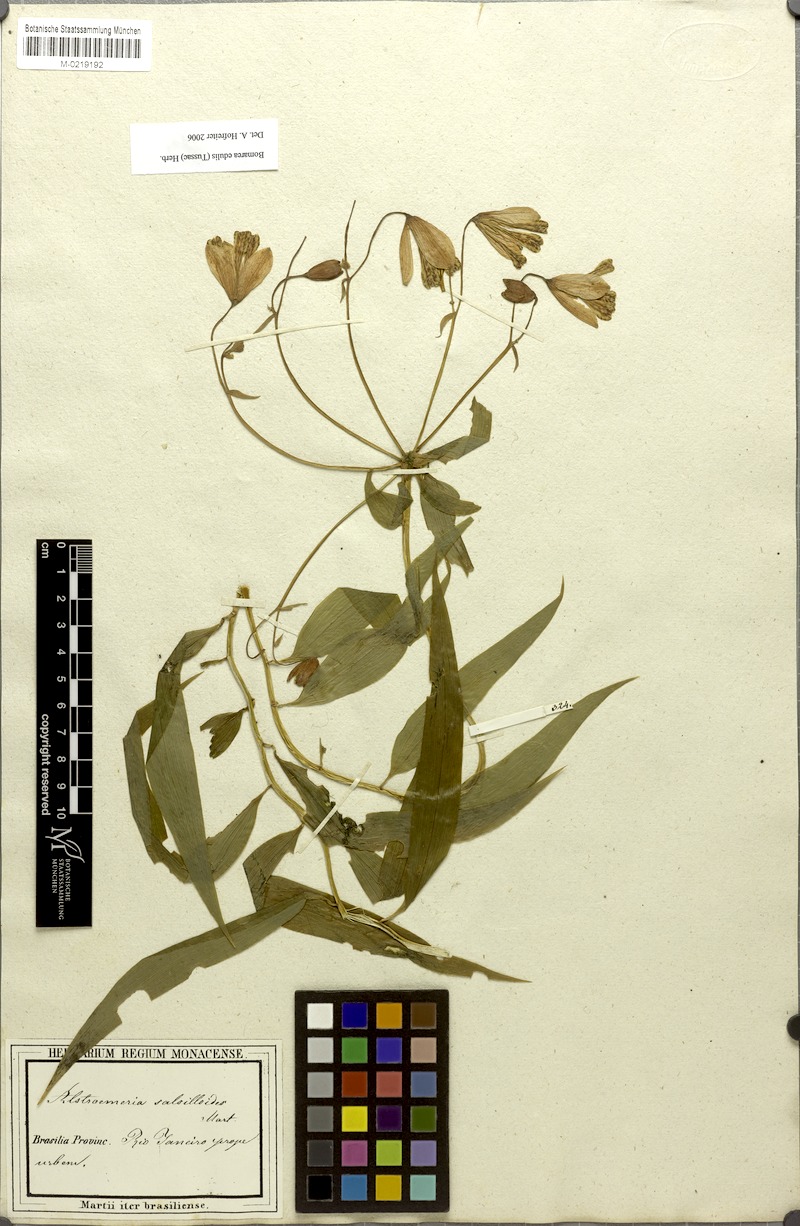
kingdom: Plantae
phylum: Tracheophyta
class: Liliopsida
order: Liliales
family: Alstroemeriaceae
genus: Bomarea
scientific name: Bomarea edulis
